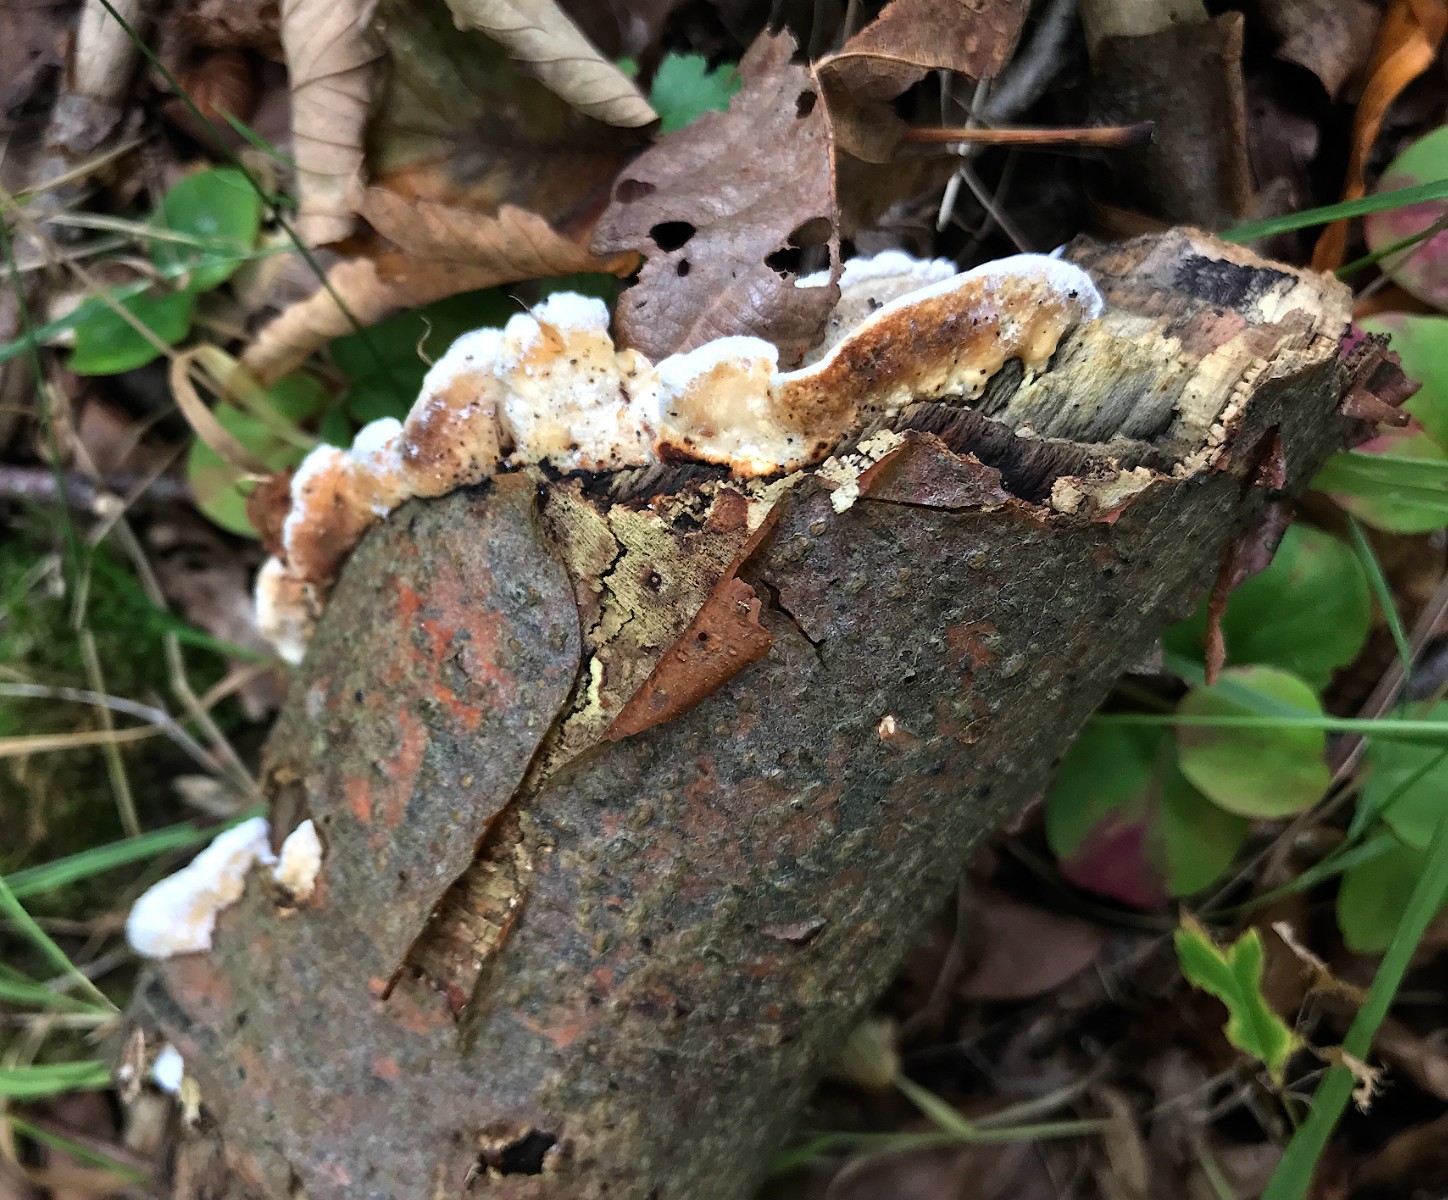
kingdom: Fungi
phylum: Basidiomycota
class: Agaricomycetes
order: Polyporales
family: Incrustoporiaceae
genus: Skeletocutis
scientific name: Skeletocutis nemoralis
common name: stor krystalporesvamp
